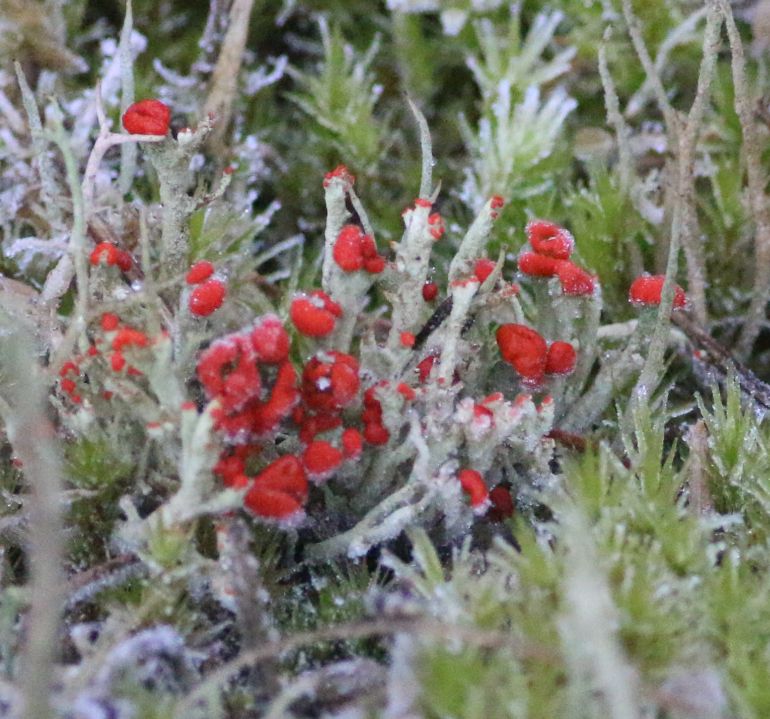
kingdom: Fungi
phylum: Ascomycota
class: Lecanoromycetes
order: Lecanorales
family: Cladoniaceae
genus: Cladonia
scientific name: Cladonia floerkeana
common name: lakrød bægerlav
